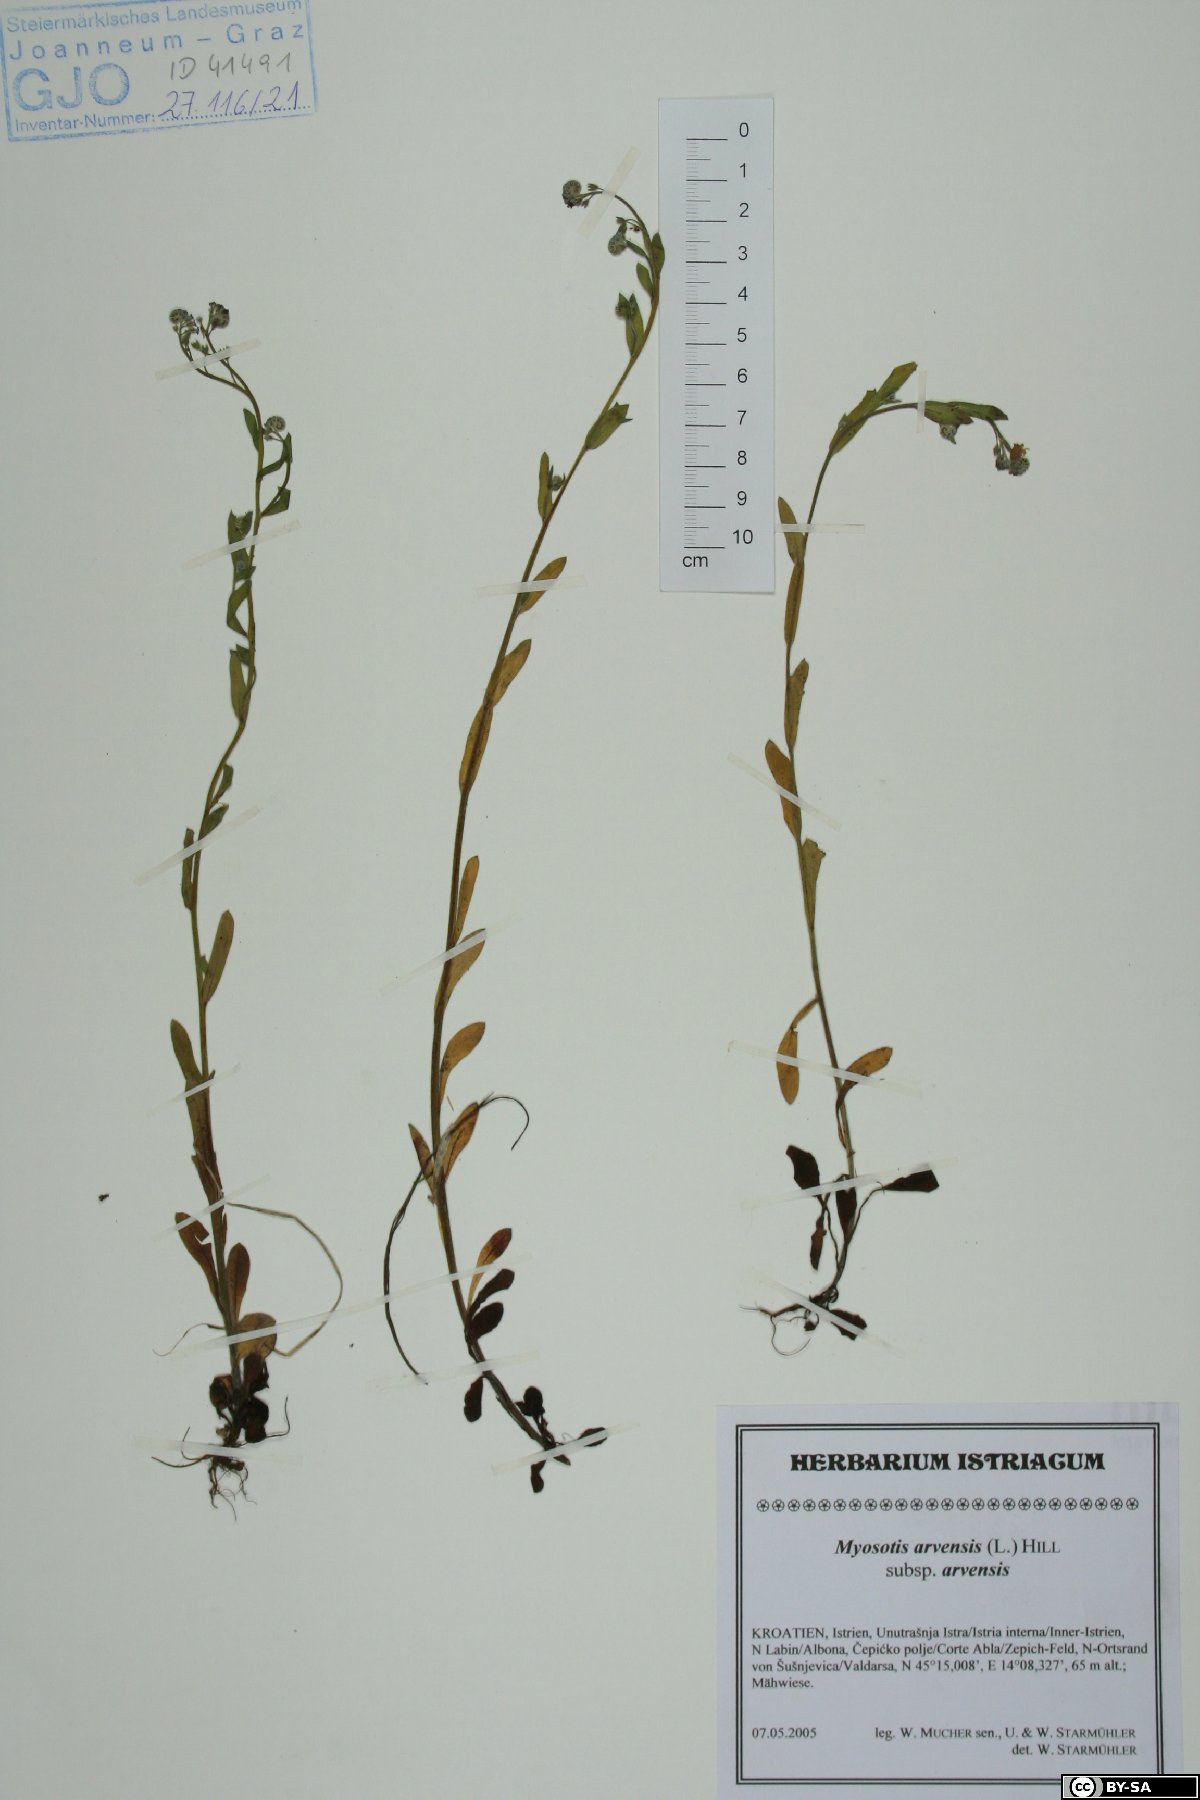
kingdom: Plantae
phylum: Tracheophyta
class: Magnoliopsida
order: Boraginales
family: Boraginaceae
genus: Myosotis
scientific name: Myosotis arvensis
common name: Field forget-me-not
